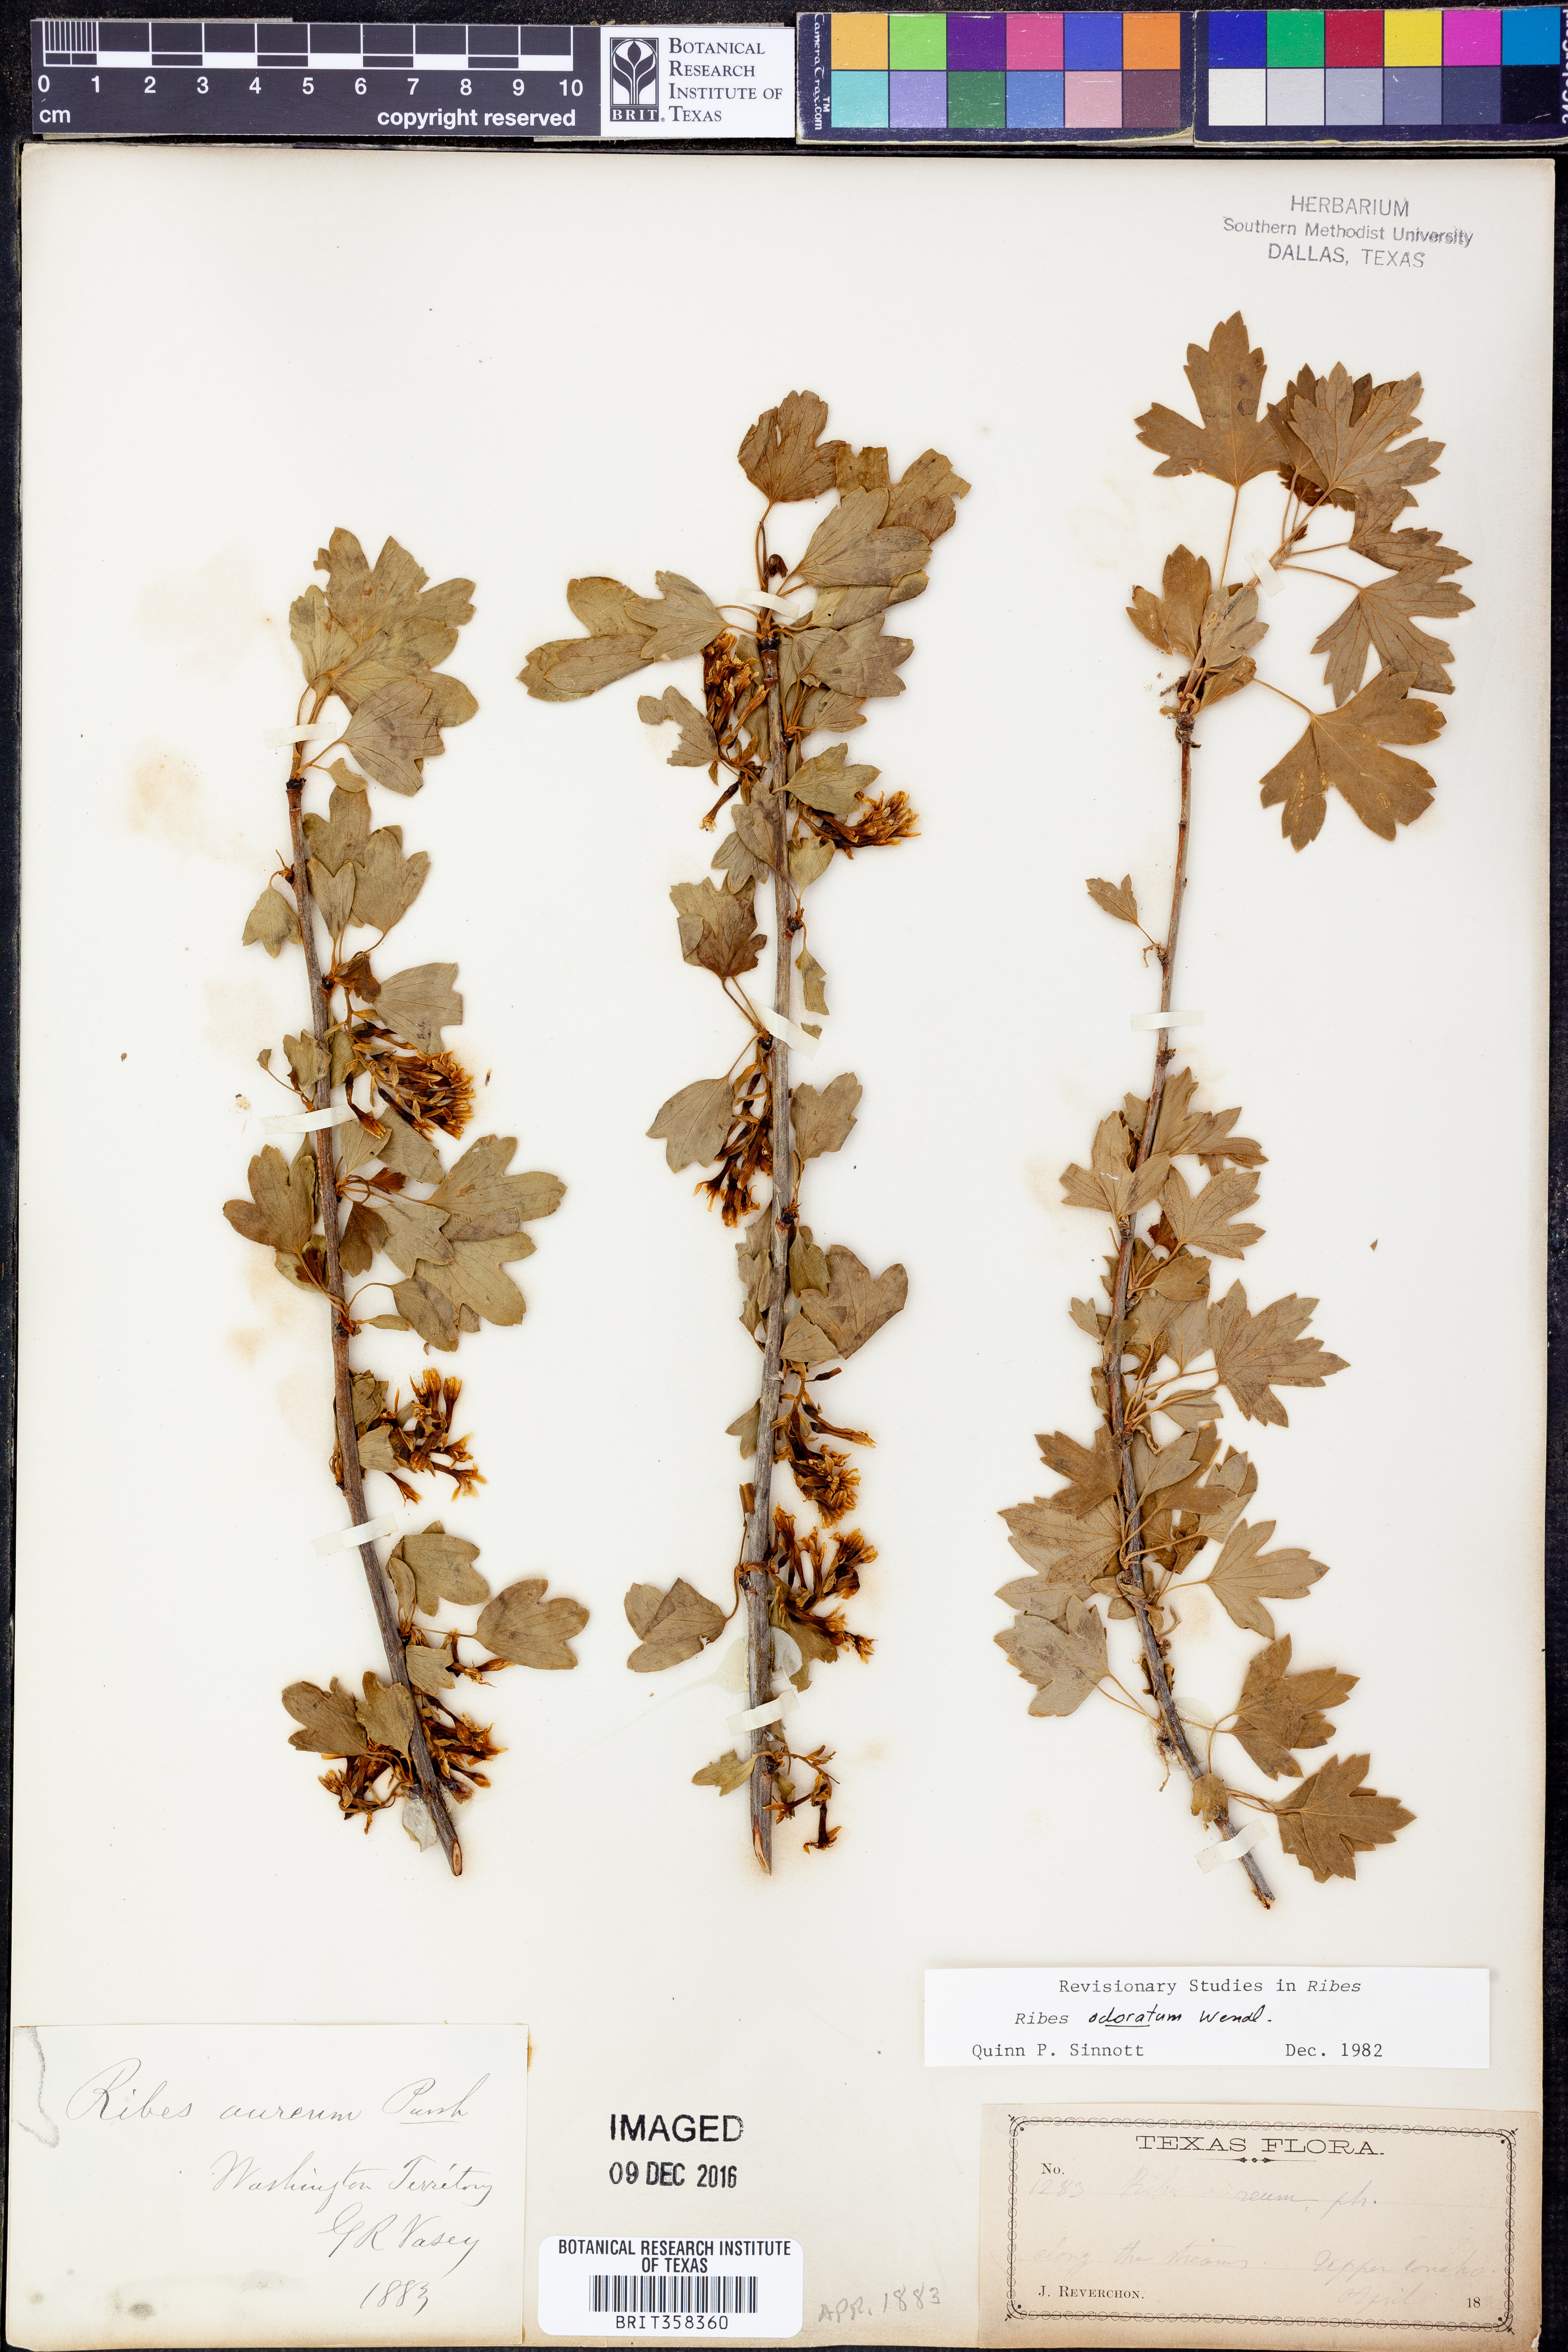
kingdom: Plantae
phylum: Tracheophyta
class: Magnoliopsida
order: Saxifragales
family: Grossulariaceae
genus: Ribes
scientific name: Ribes aureum
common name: Golden currant
